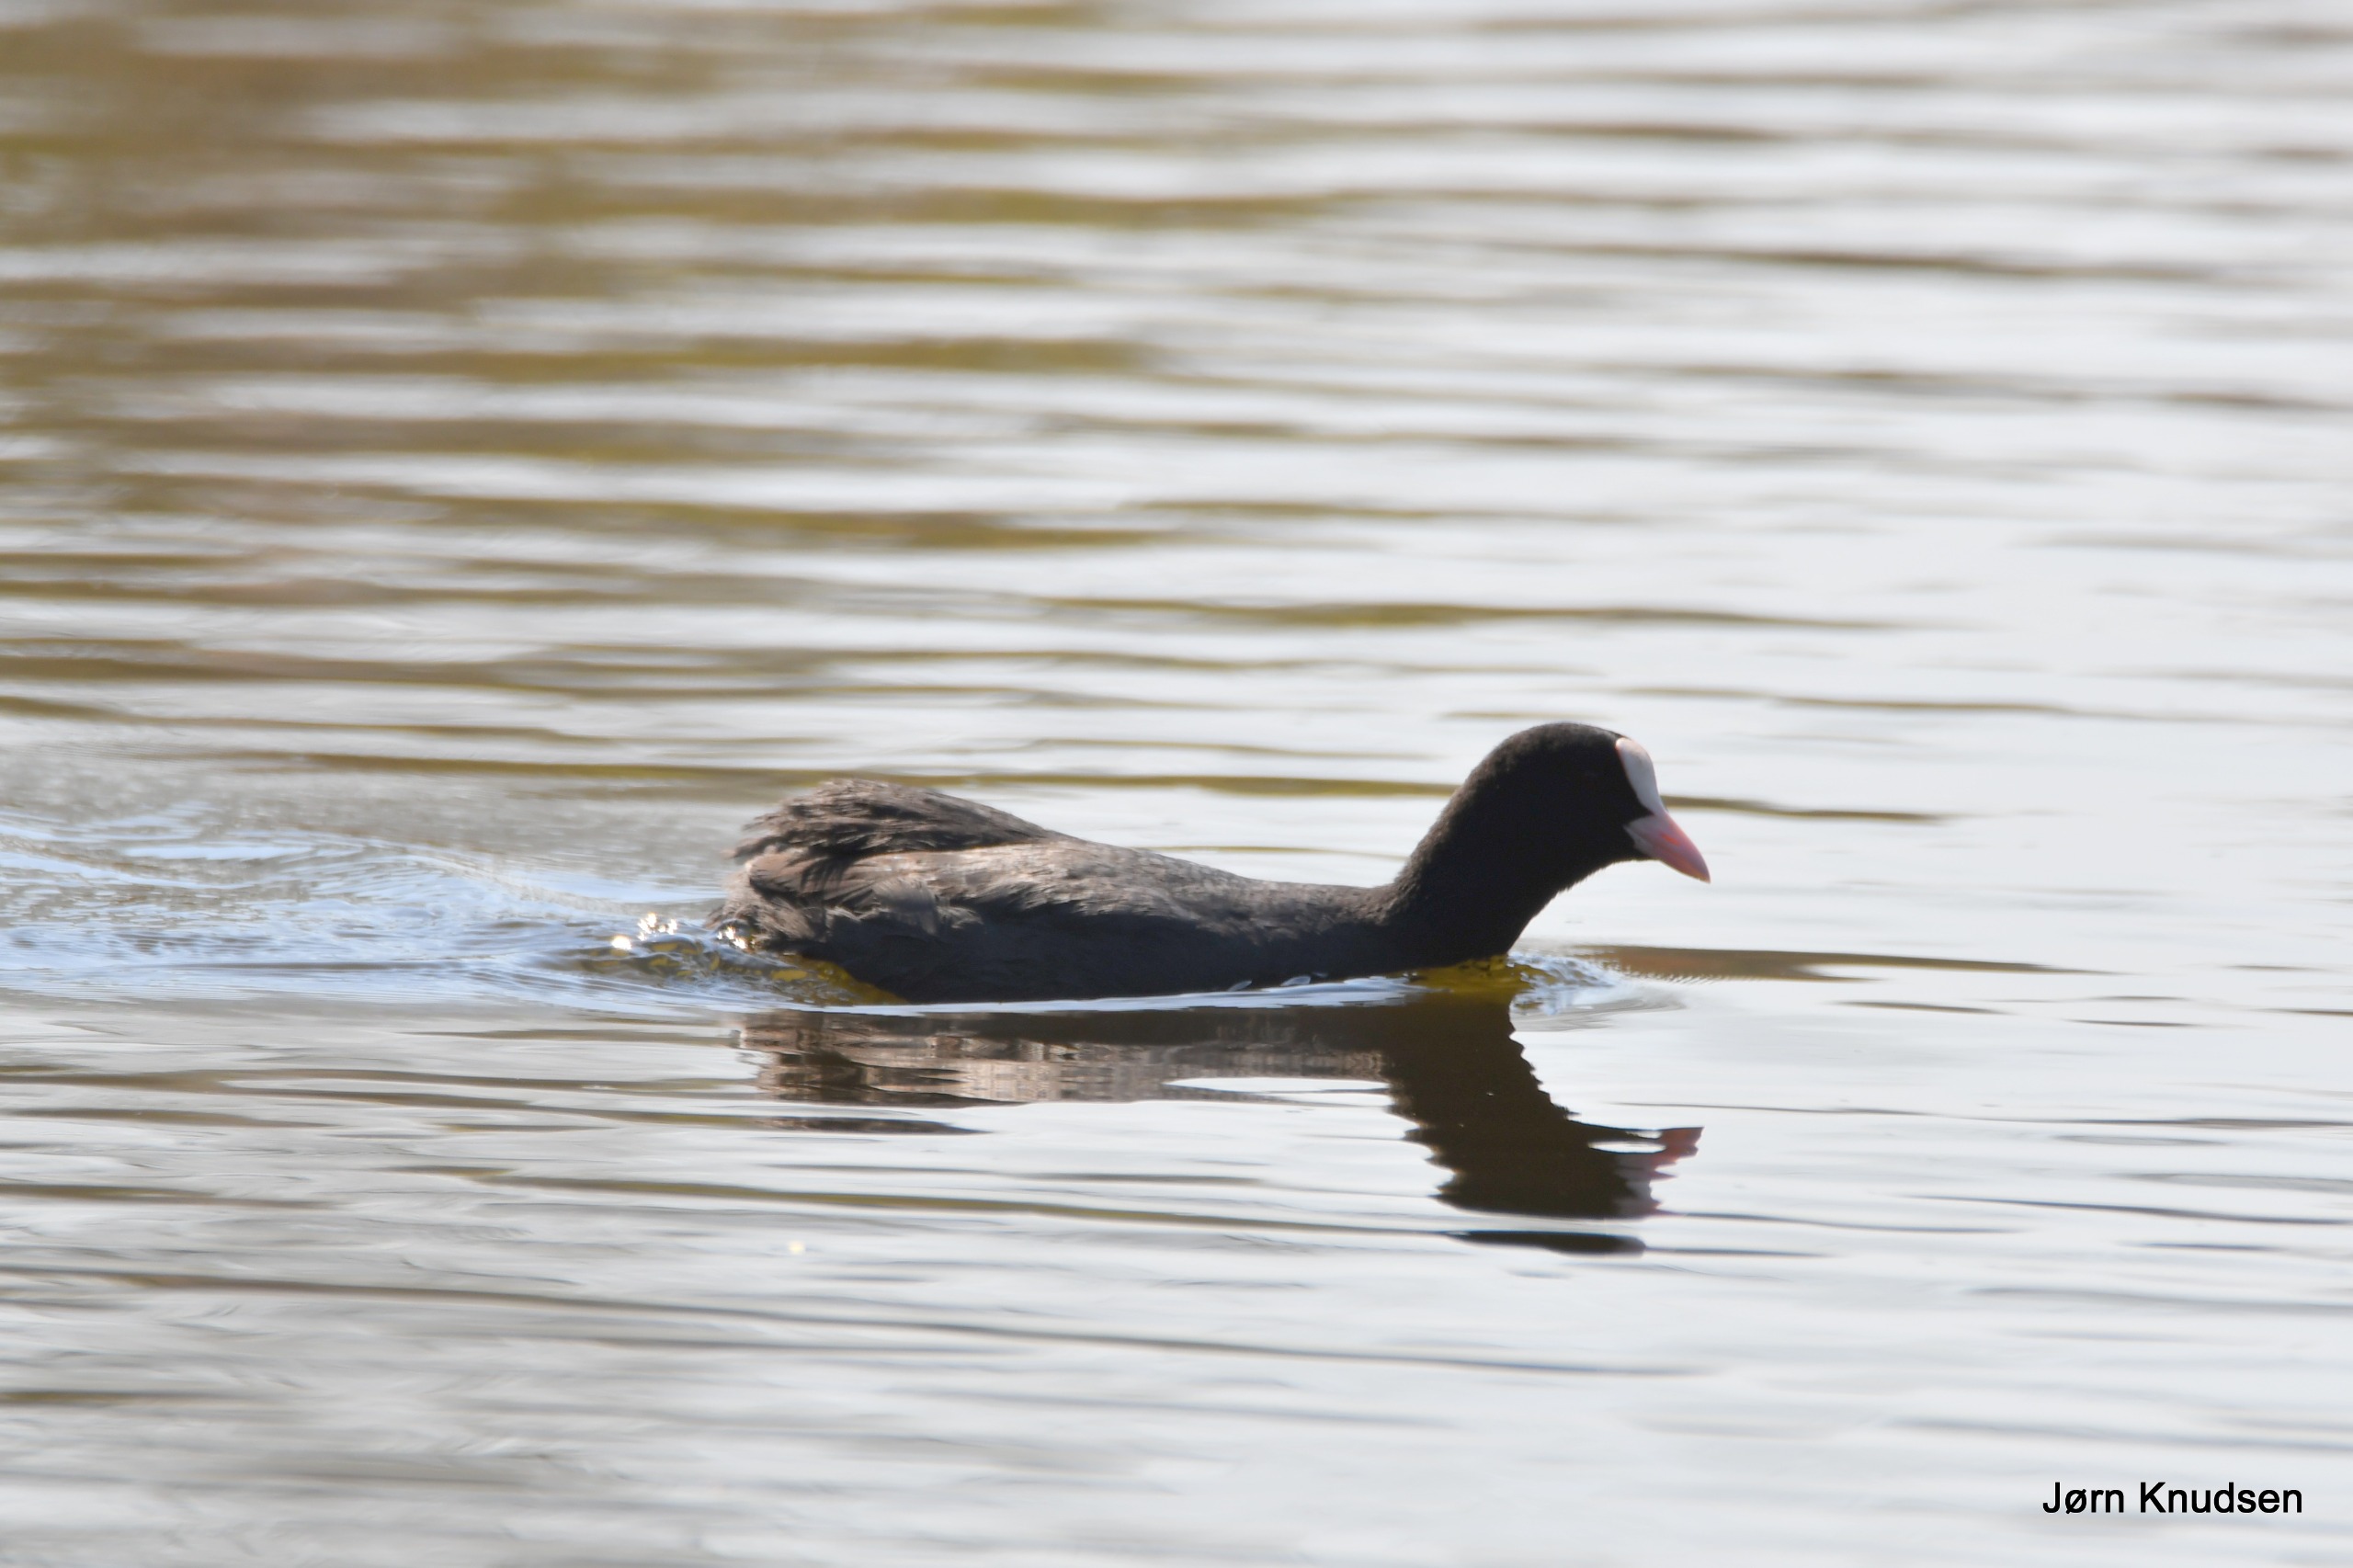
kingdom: Animalia
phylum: Chordata
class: Aves
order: Gruiformes
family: Rallidae
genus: Fulica
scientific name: Fulica atra
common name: Blishøne
